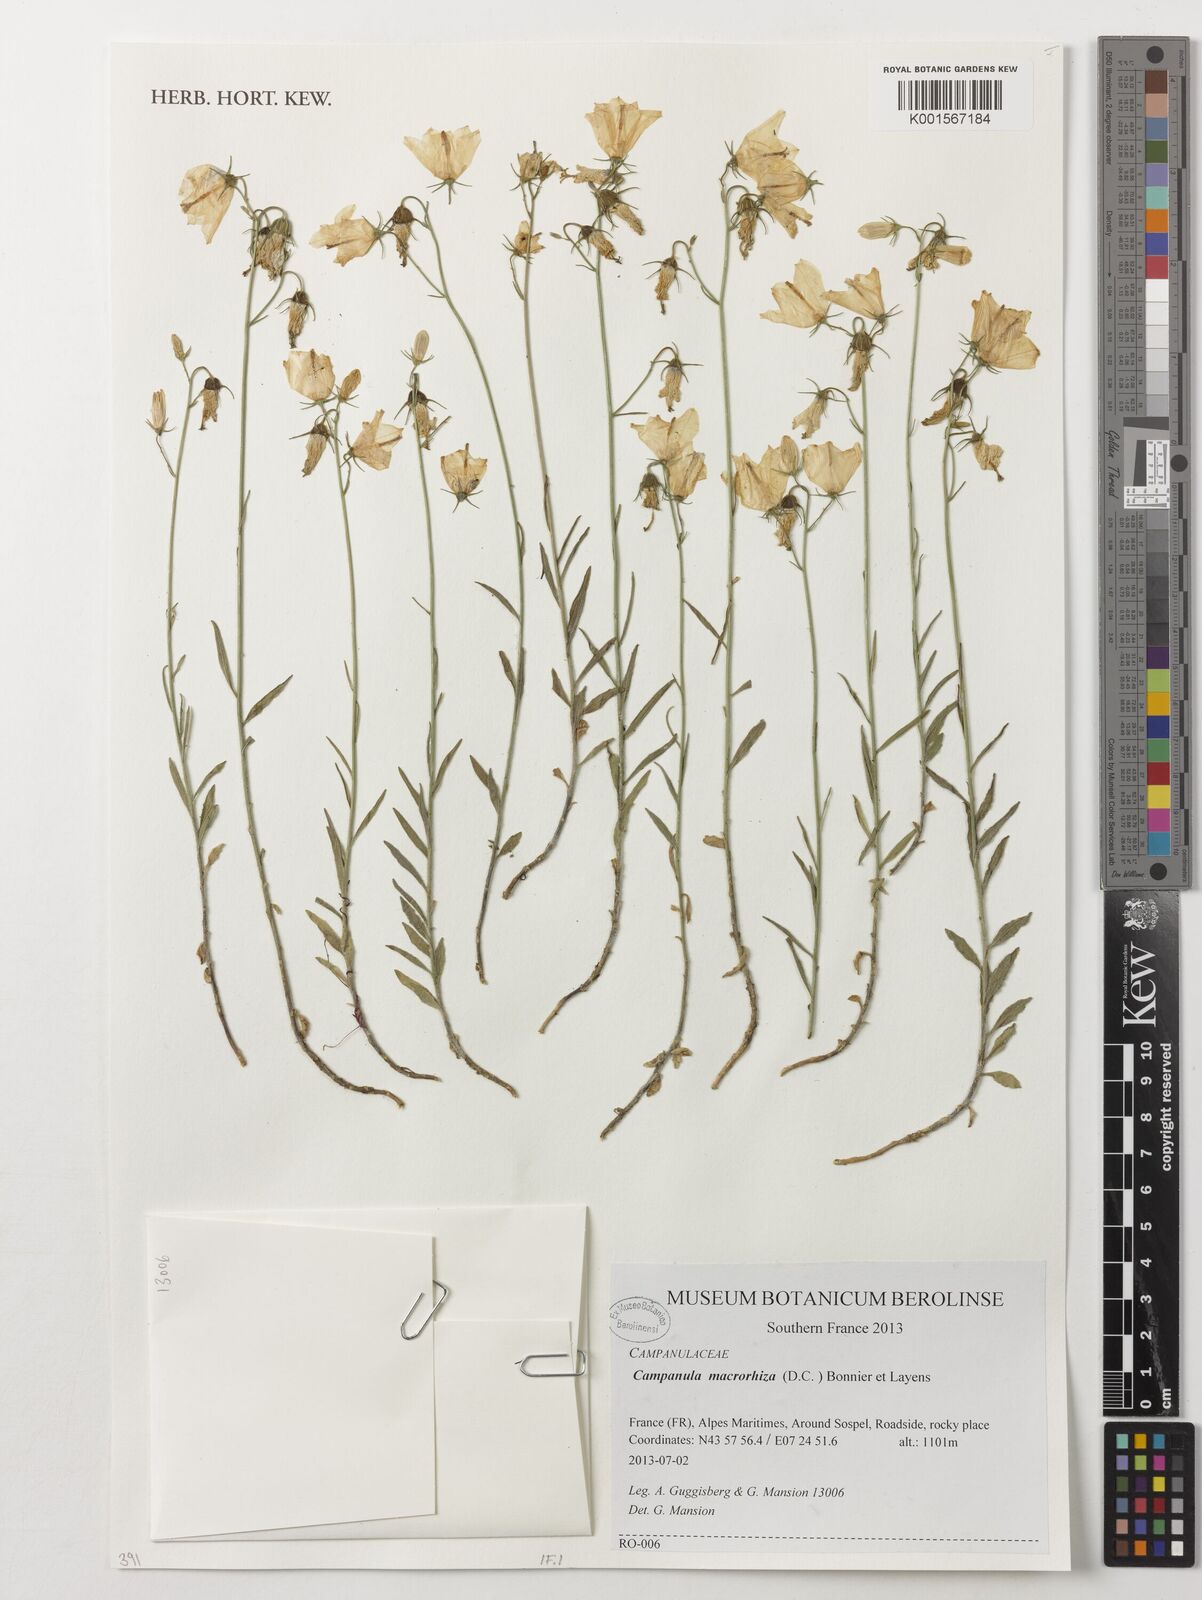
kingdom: Plantae
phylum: Tracheophyta
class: Magnoliopsida
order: Asterales
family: Campanulaceae
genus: Campanula
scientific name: Campanula macrorhiza
